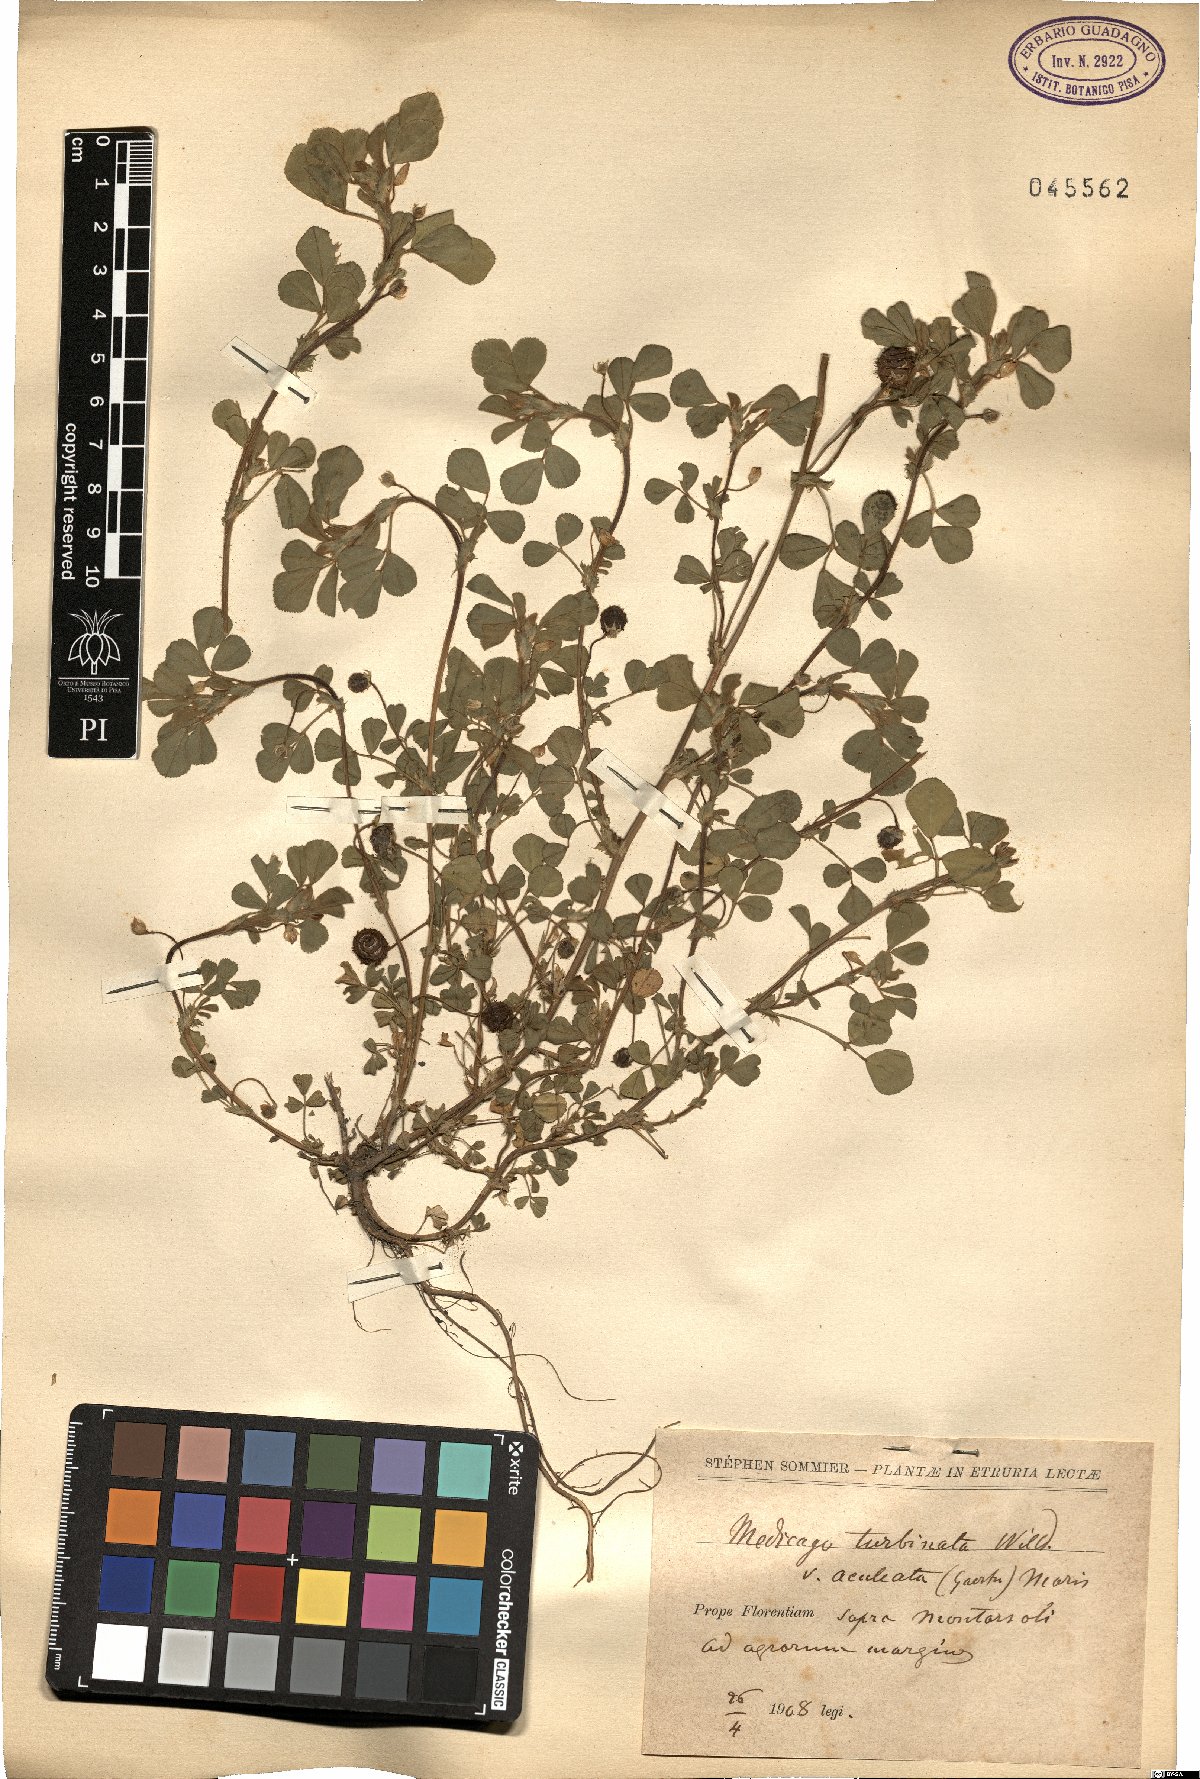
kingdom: Plantae
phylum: Tracheophyta
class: Magnoliopsida
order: Fabales
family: Fabaceae
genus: Medicago
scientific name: Medicago turbinata
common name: Southern medick
